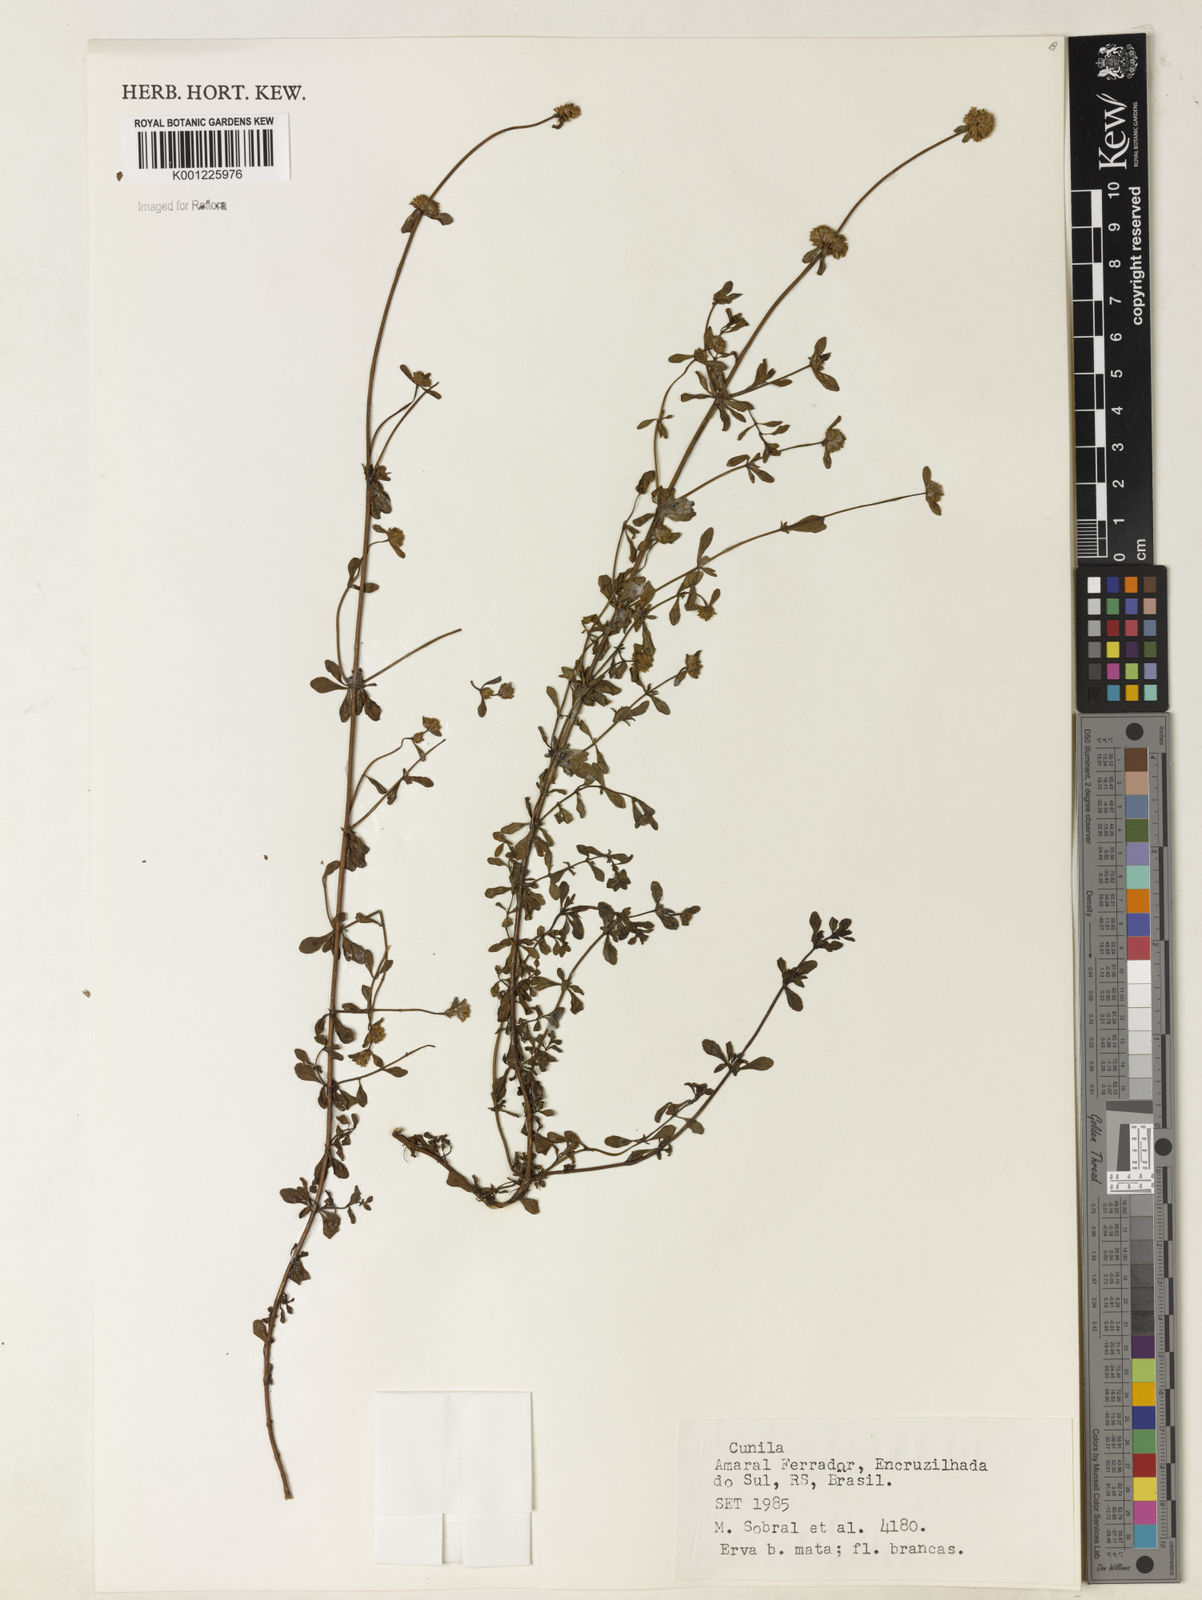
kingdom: Plantae
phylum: Tracheophyta
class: Magnoliopsida
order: Lamiales
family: Lamiaceae
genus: Cunila
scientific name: Cunila
